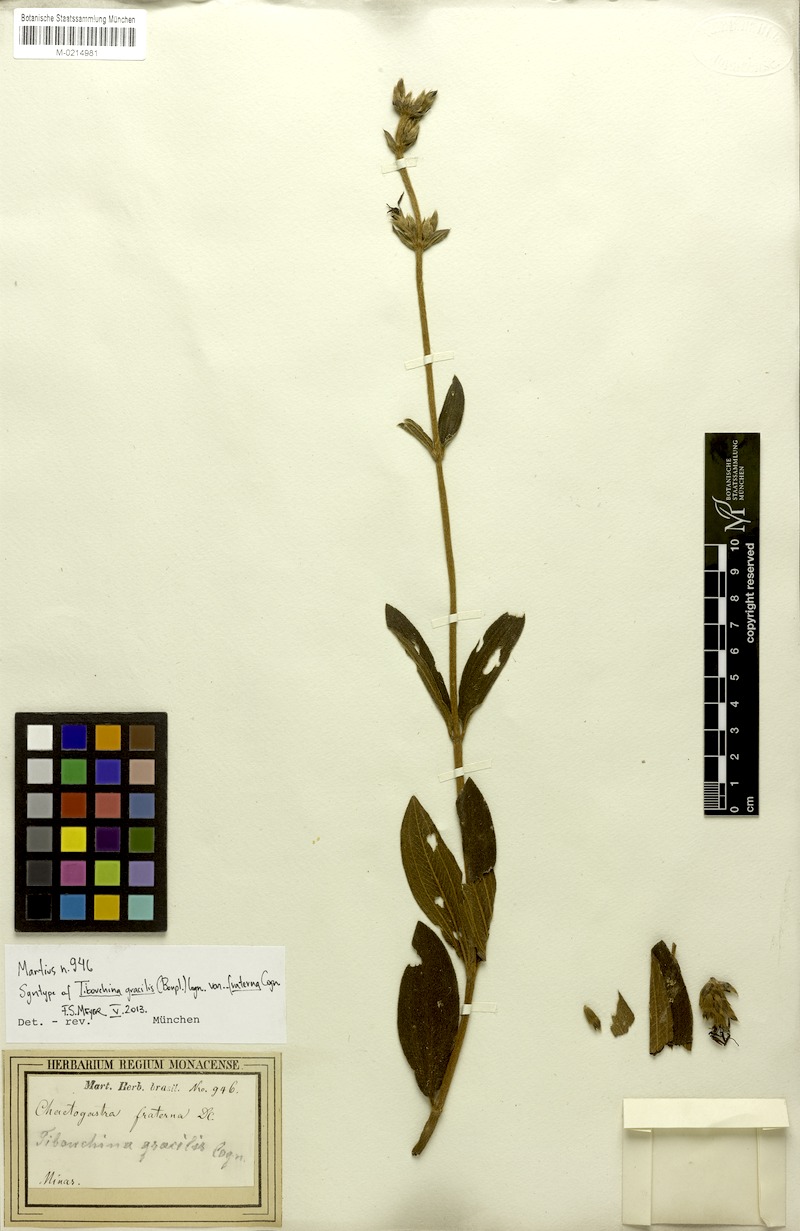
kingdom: Plantae
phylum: Tracheophyta
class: Magnoliopsida
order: Myrtales
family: Melastomataceae
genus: Chaetogastra
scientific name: Chaetogastra gracilis
